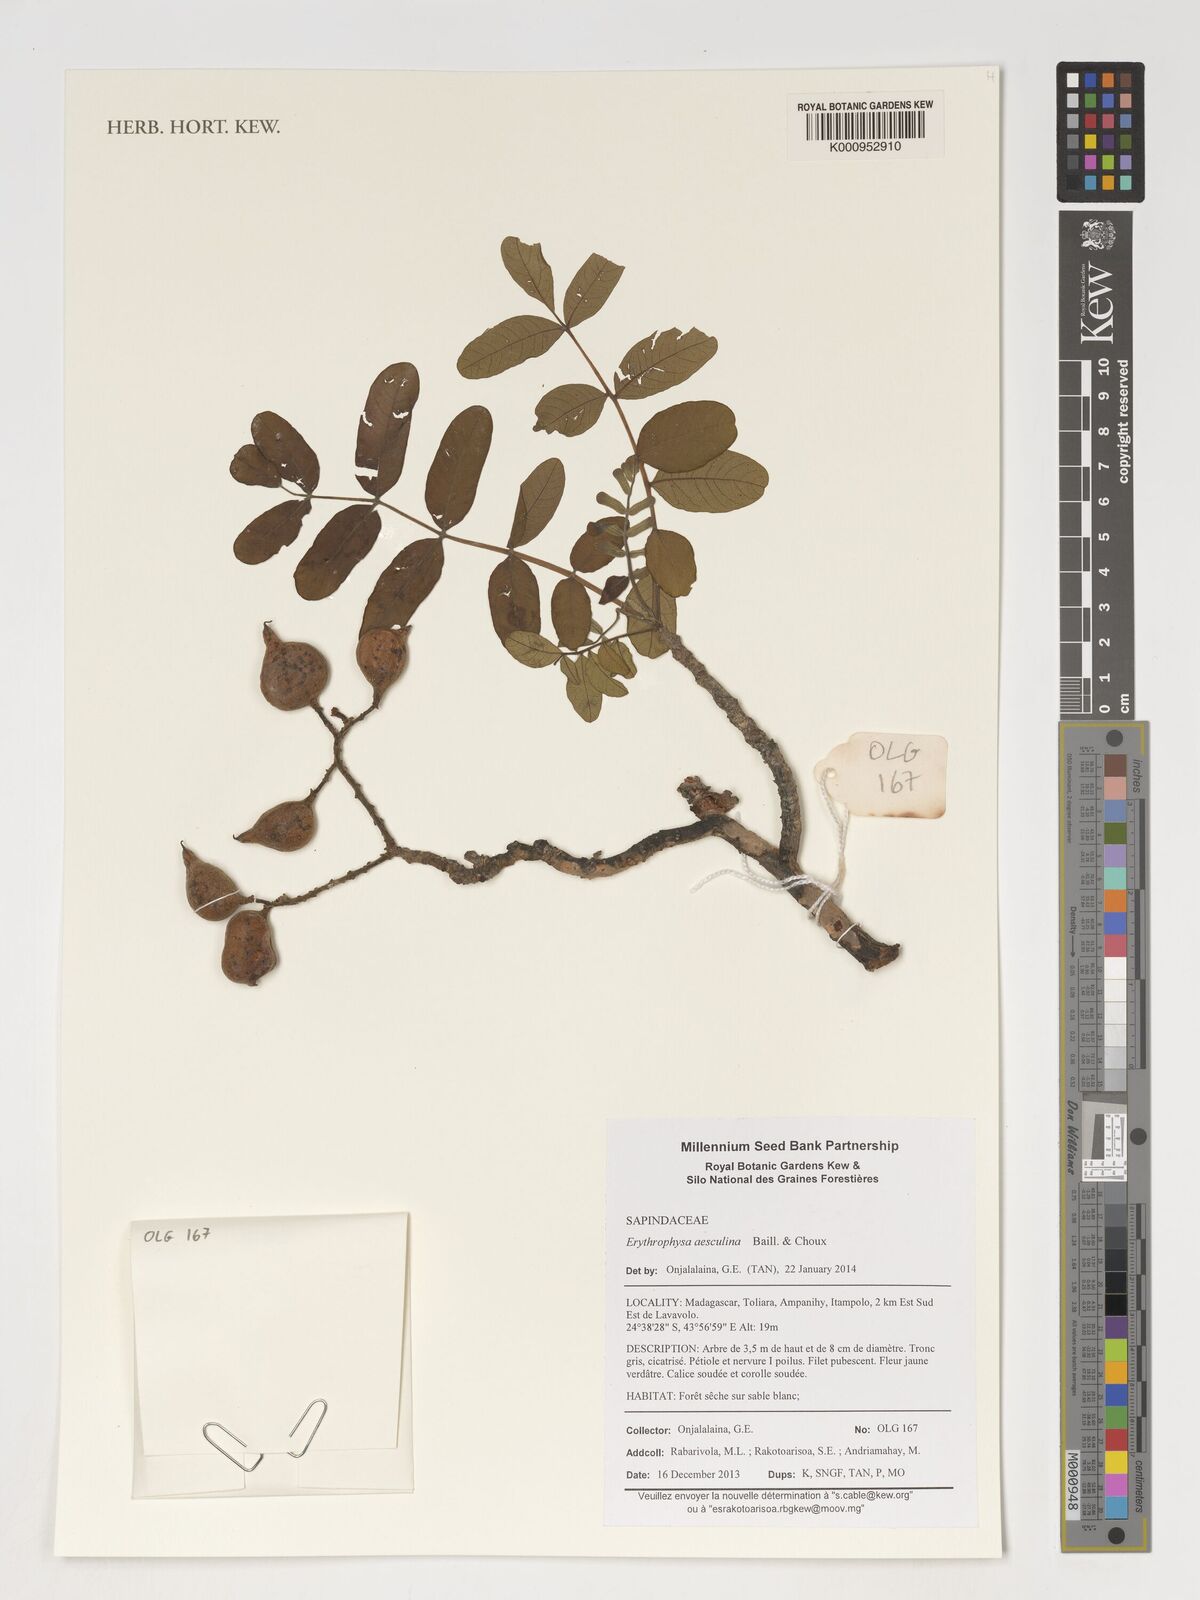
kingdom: Plantae
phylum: Tracheophyta
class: Magnoliopsida
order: Sapindales
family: Sapindaceae
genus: Erythrophysa
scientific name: Erythrophysa aesculina
